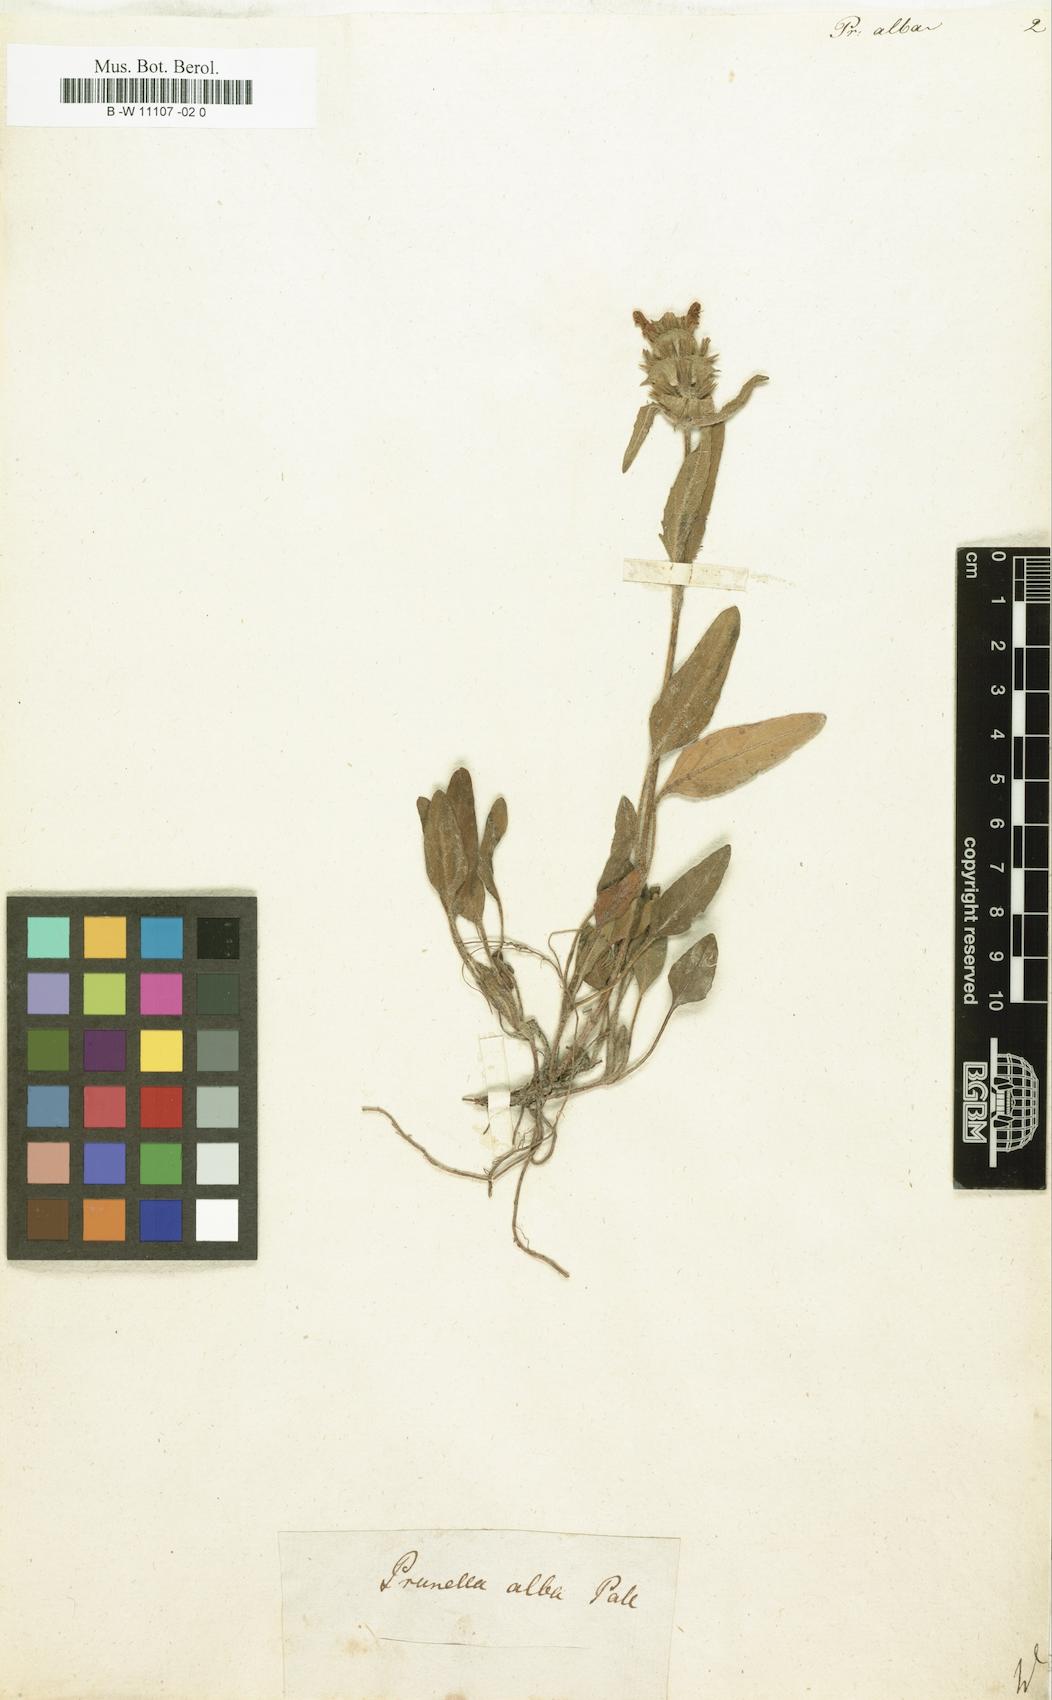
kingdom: Plantae
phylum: Tracheophyta
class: Magnoliopsida
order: Lamiales
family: Lamiaceae
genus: Prunella
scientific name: Prunella laciniata
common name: Cut-leaved selfheal
